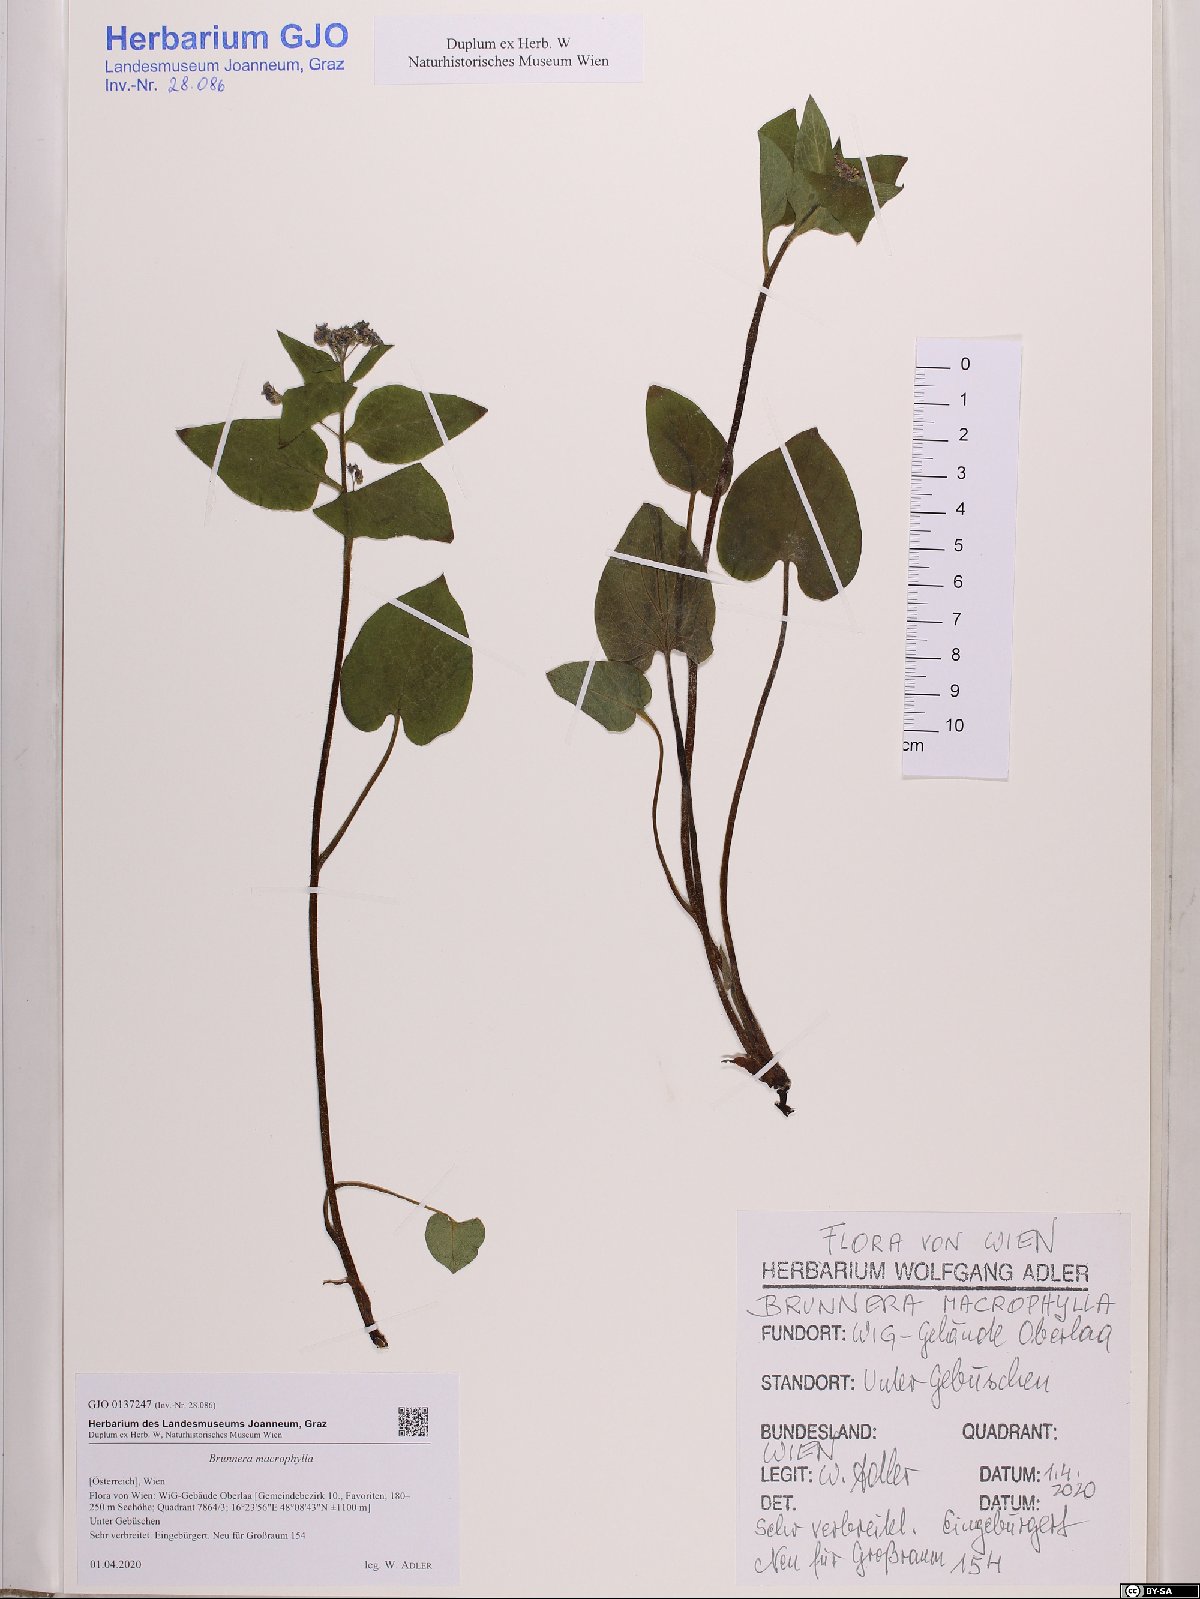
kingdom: Plantae
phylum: Tracheophyta
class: Magnoliopsida
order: Boraginales
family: Boraginaceae
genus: Brunnera
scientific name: Brunnera macrophylla
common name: Great forget-me-not
